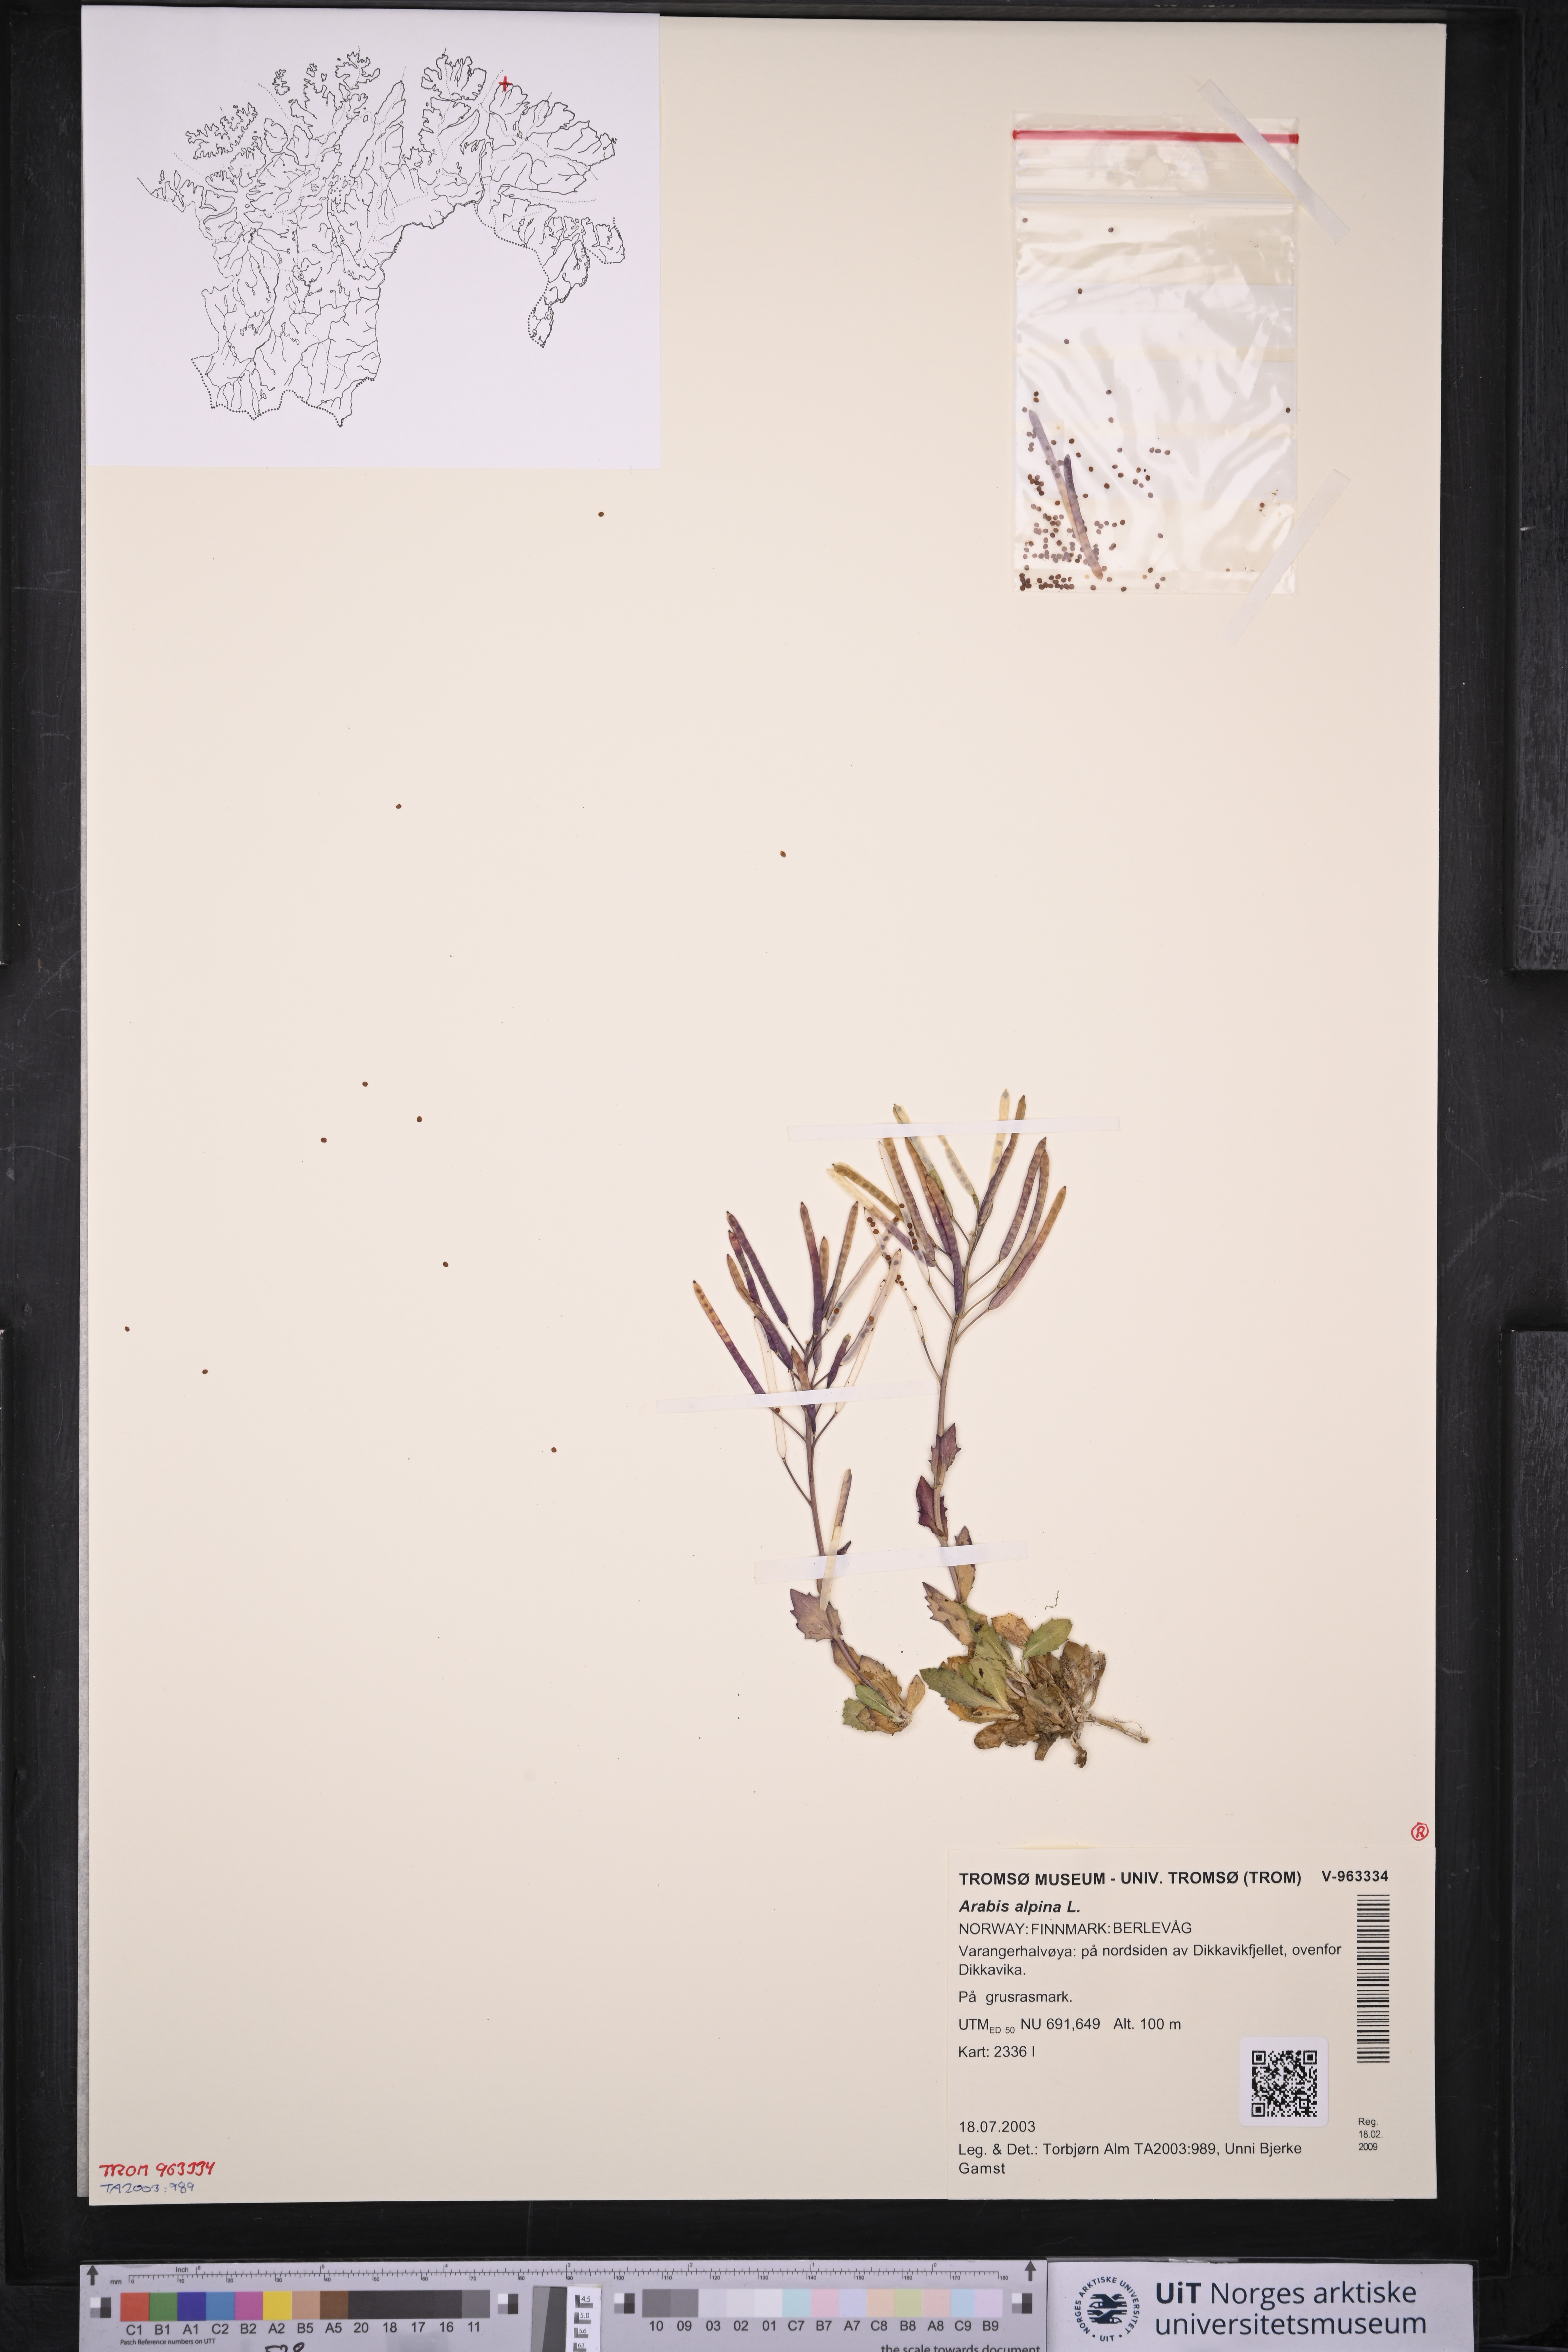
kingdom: Plantae
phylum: Tracheophyta
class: Magnoliopsida
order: Brassicales
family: Brassicaceae
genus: Arabis
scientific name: Arabis alpina
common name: Alpine rock-cress
